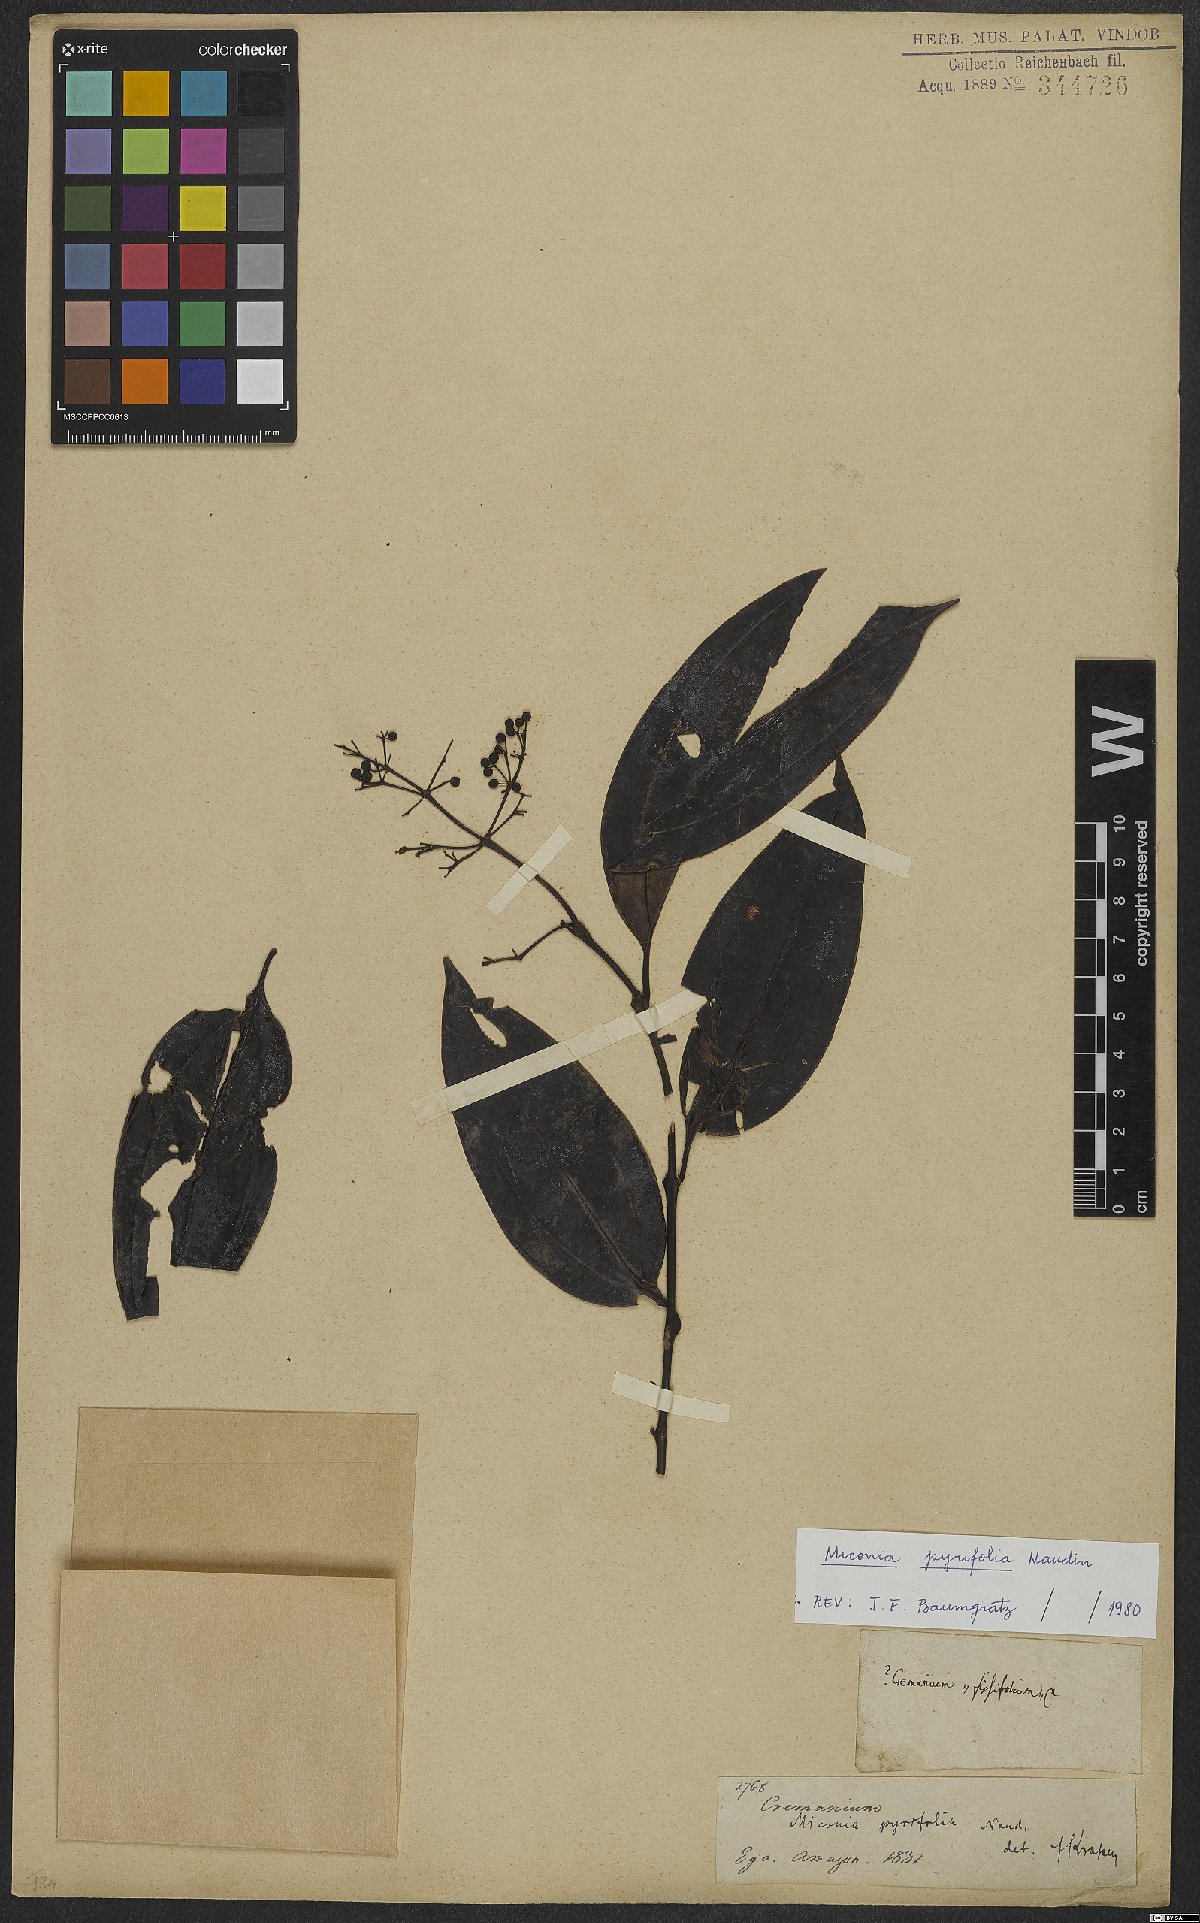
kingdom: Plantae
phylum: Tracheophyta
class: Magnoliopsida
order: Myrtales
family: Melastomataceae
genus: Miconia
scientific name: Miconia pyrifolia
